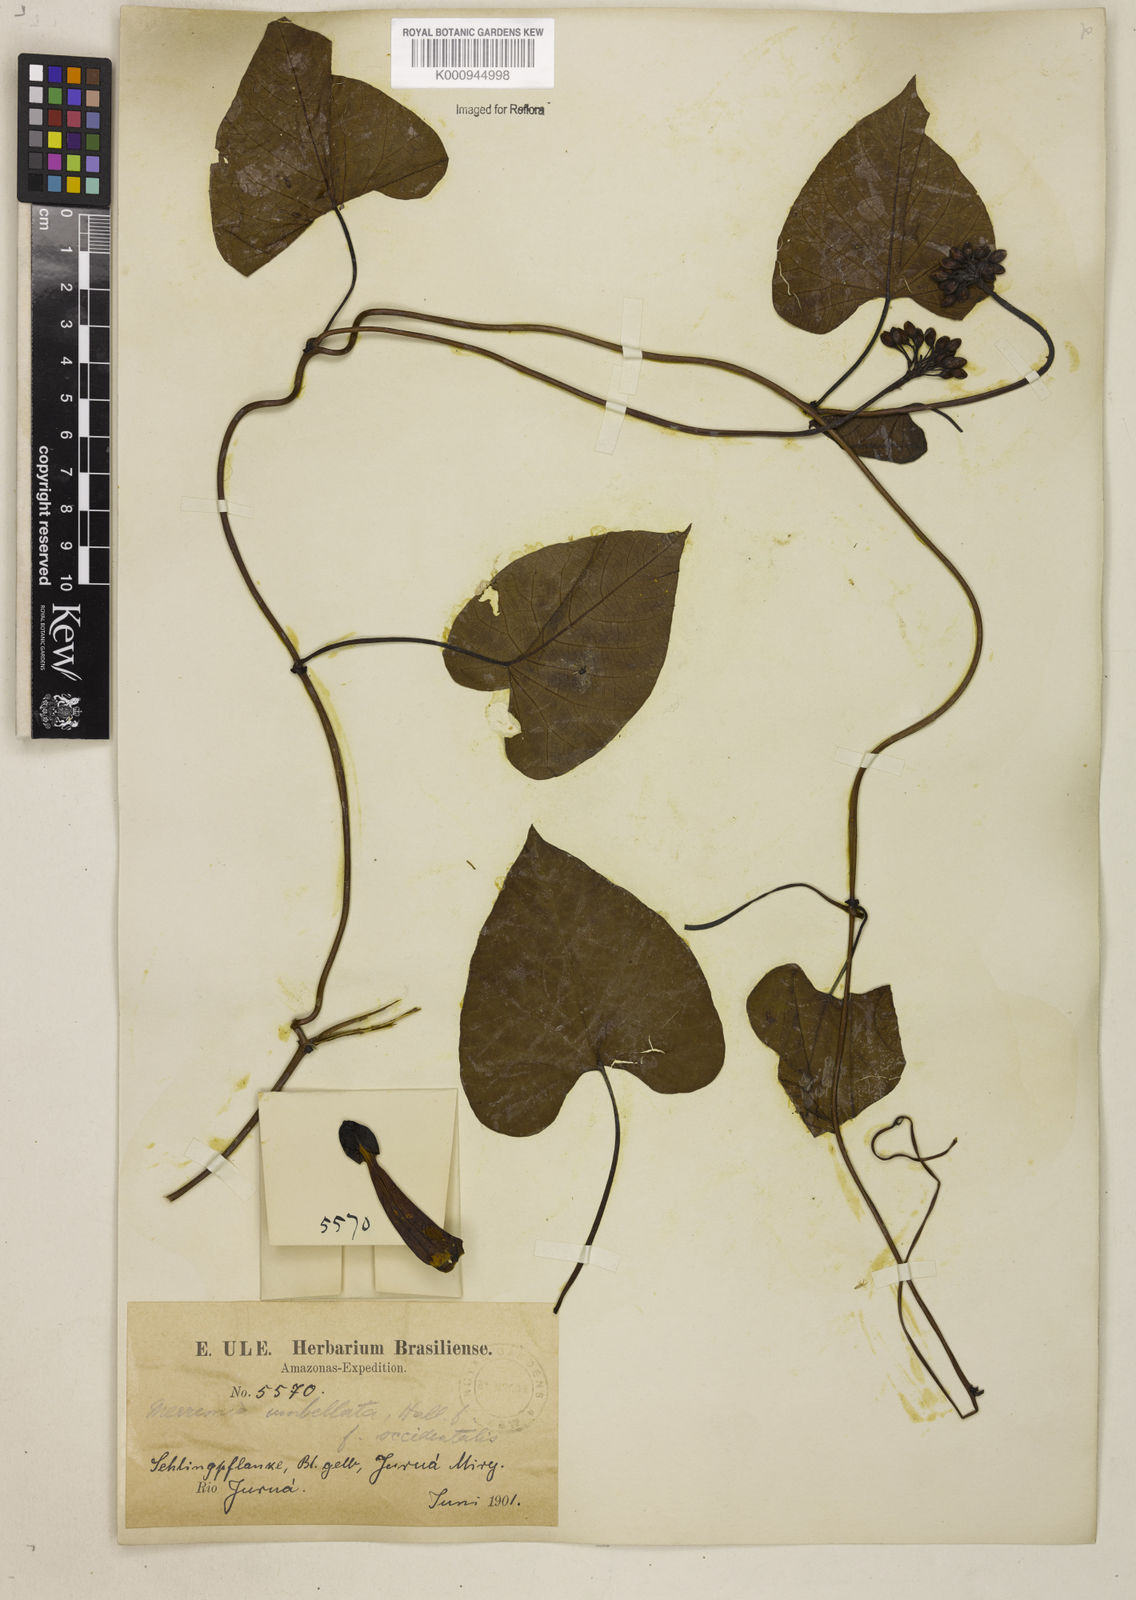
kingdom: Plantae
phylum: Tracheophyta
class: Magnoliopsida
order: Solanales
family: Convolvulaceae
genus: Camonea
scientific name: Camonea umbellata
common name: Hogvine
